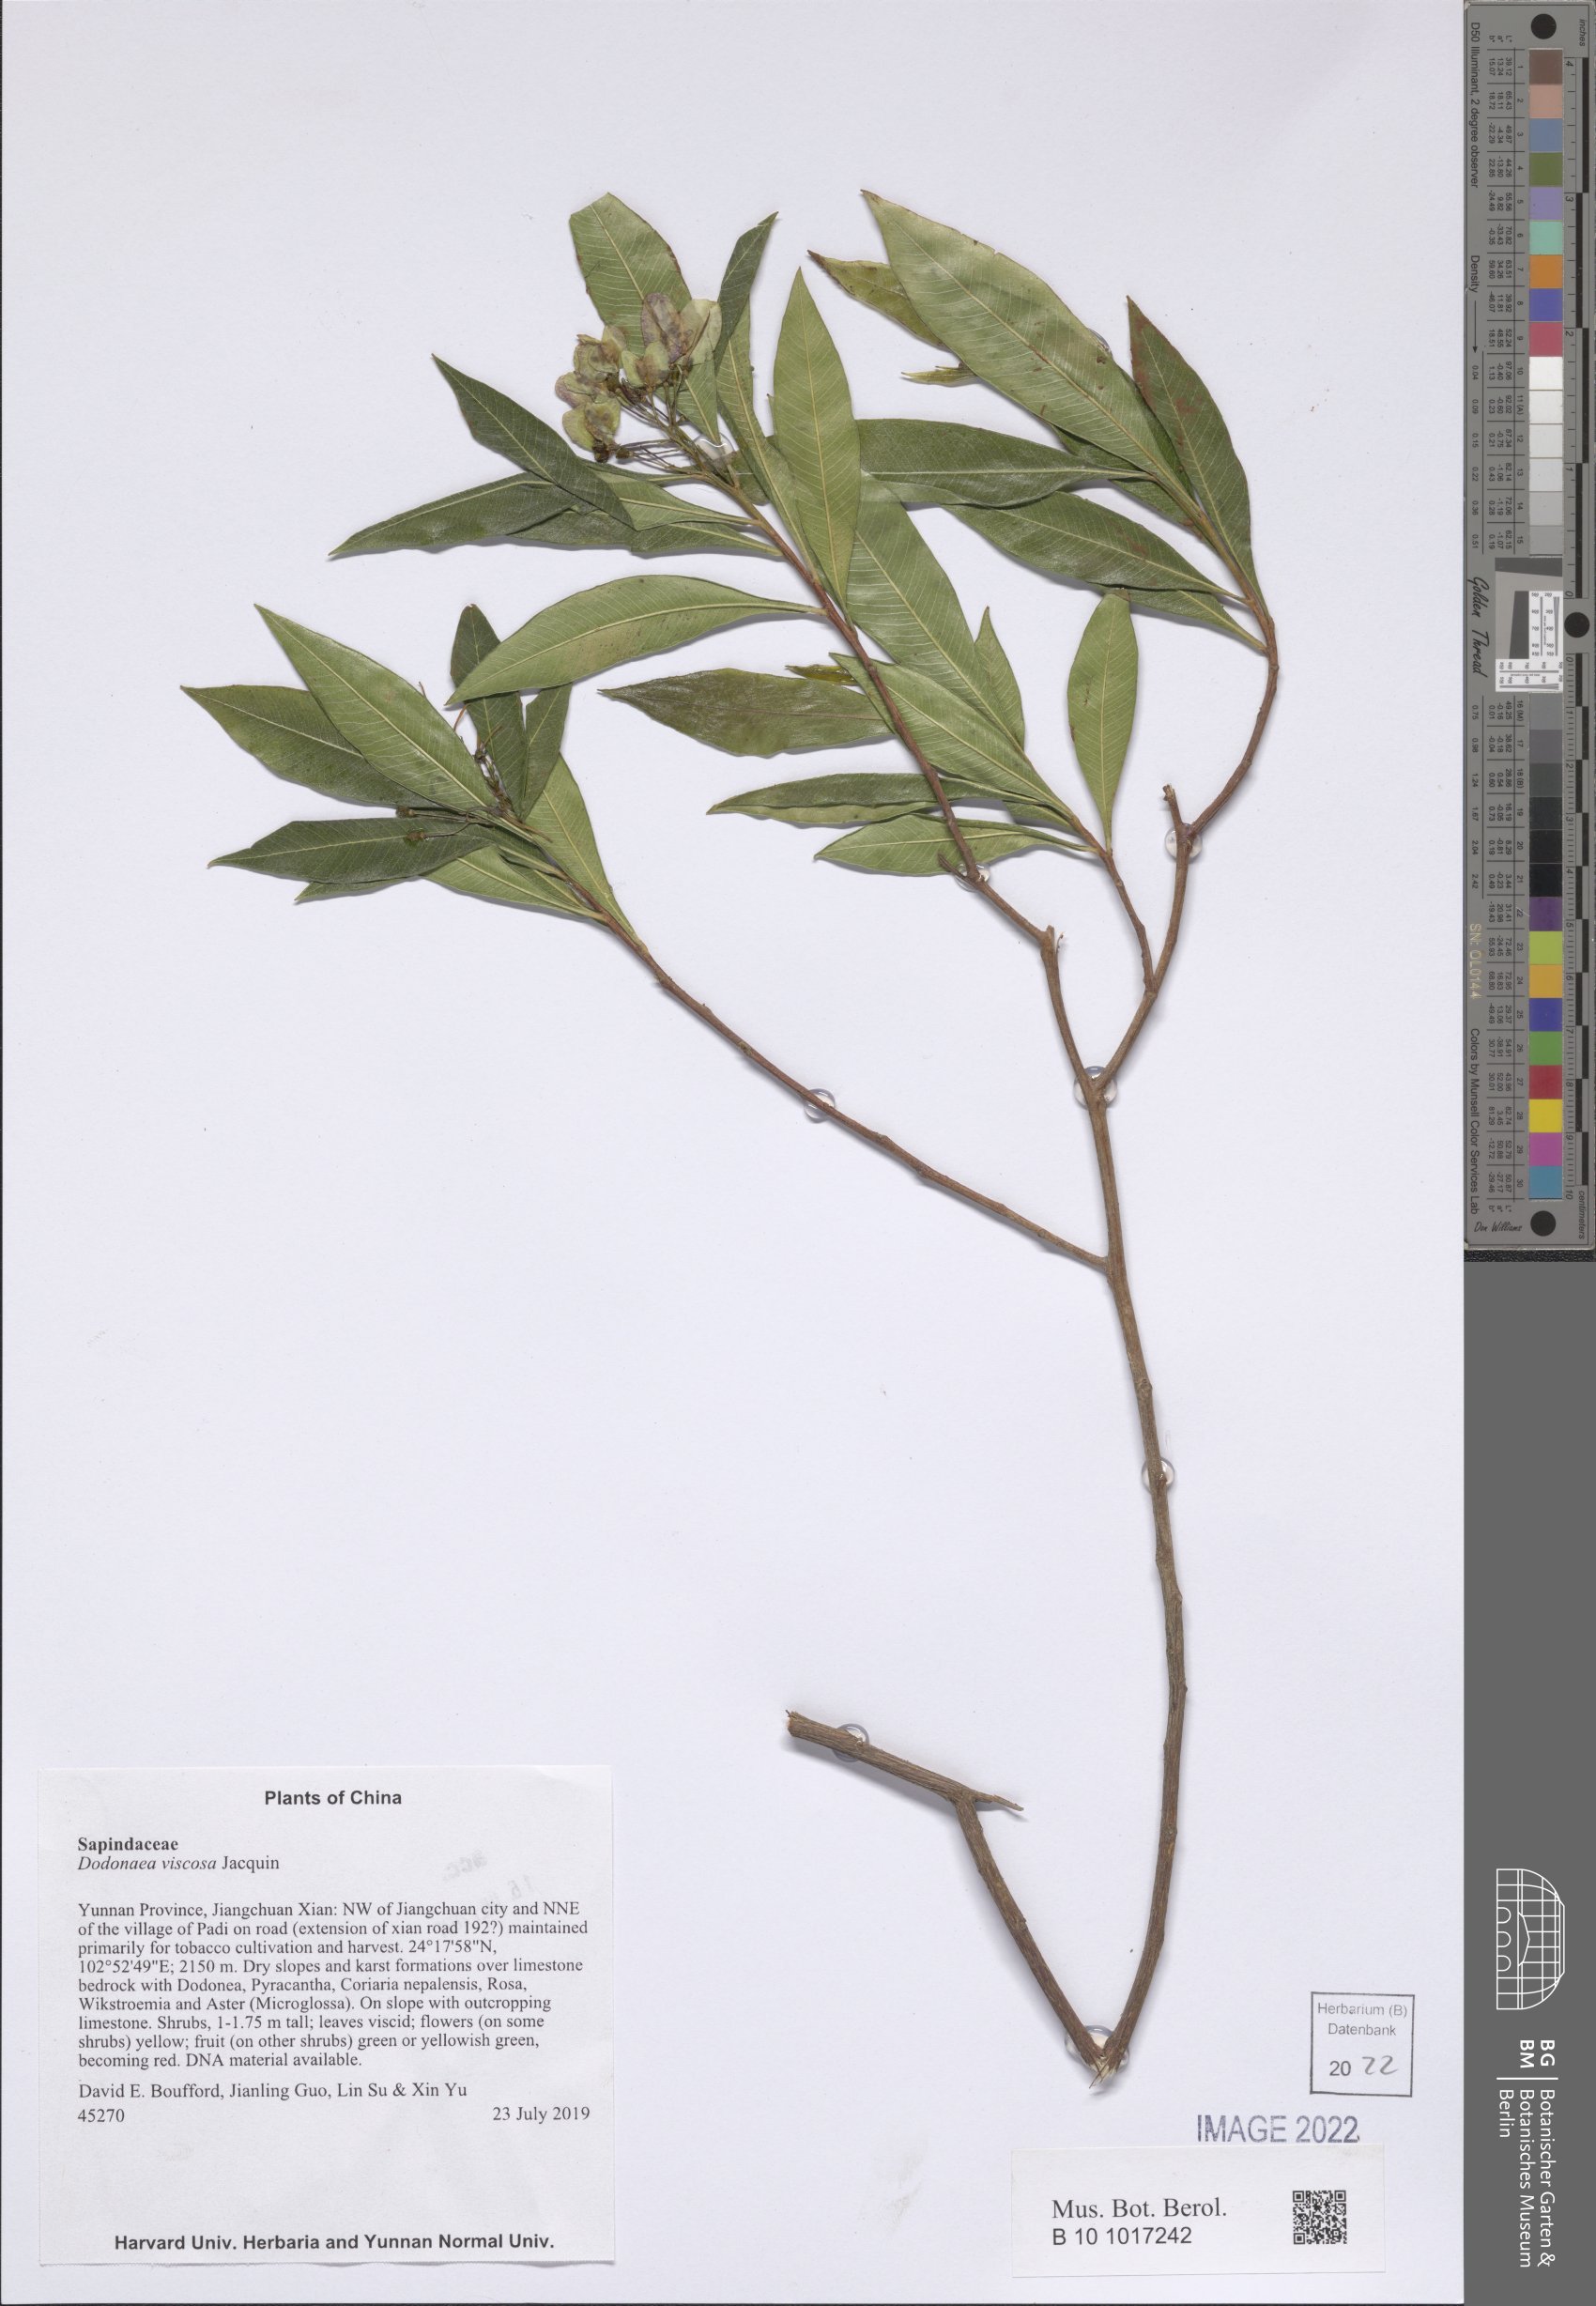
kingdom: Plantae
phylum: Tracheophyta
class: Magnoliopsida
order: Sapindales
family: Sapindaceae
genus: Dodonaea
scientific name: Dodonaea viscosa
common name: Hopbush
